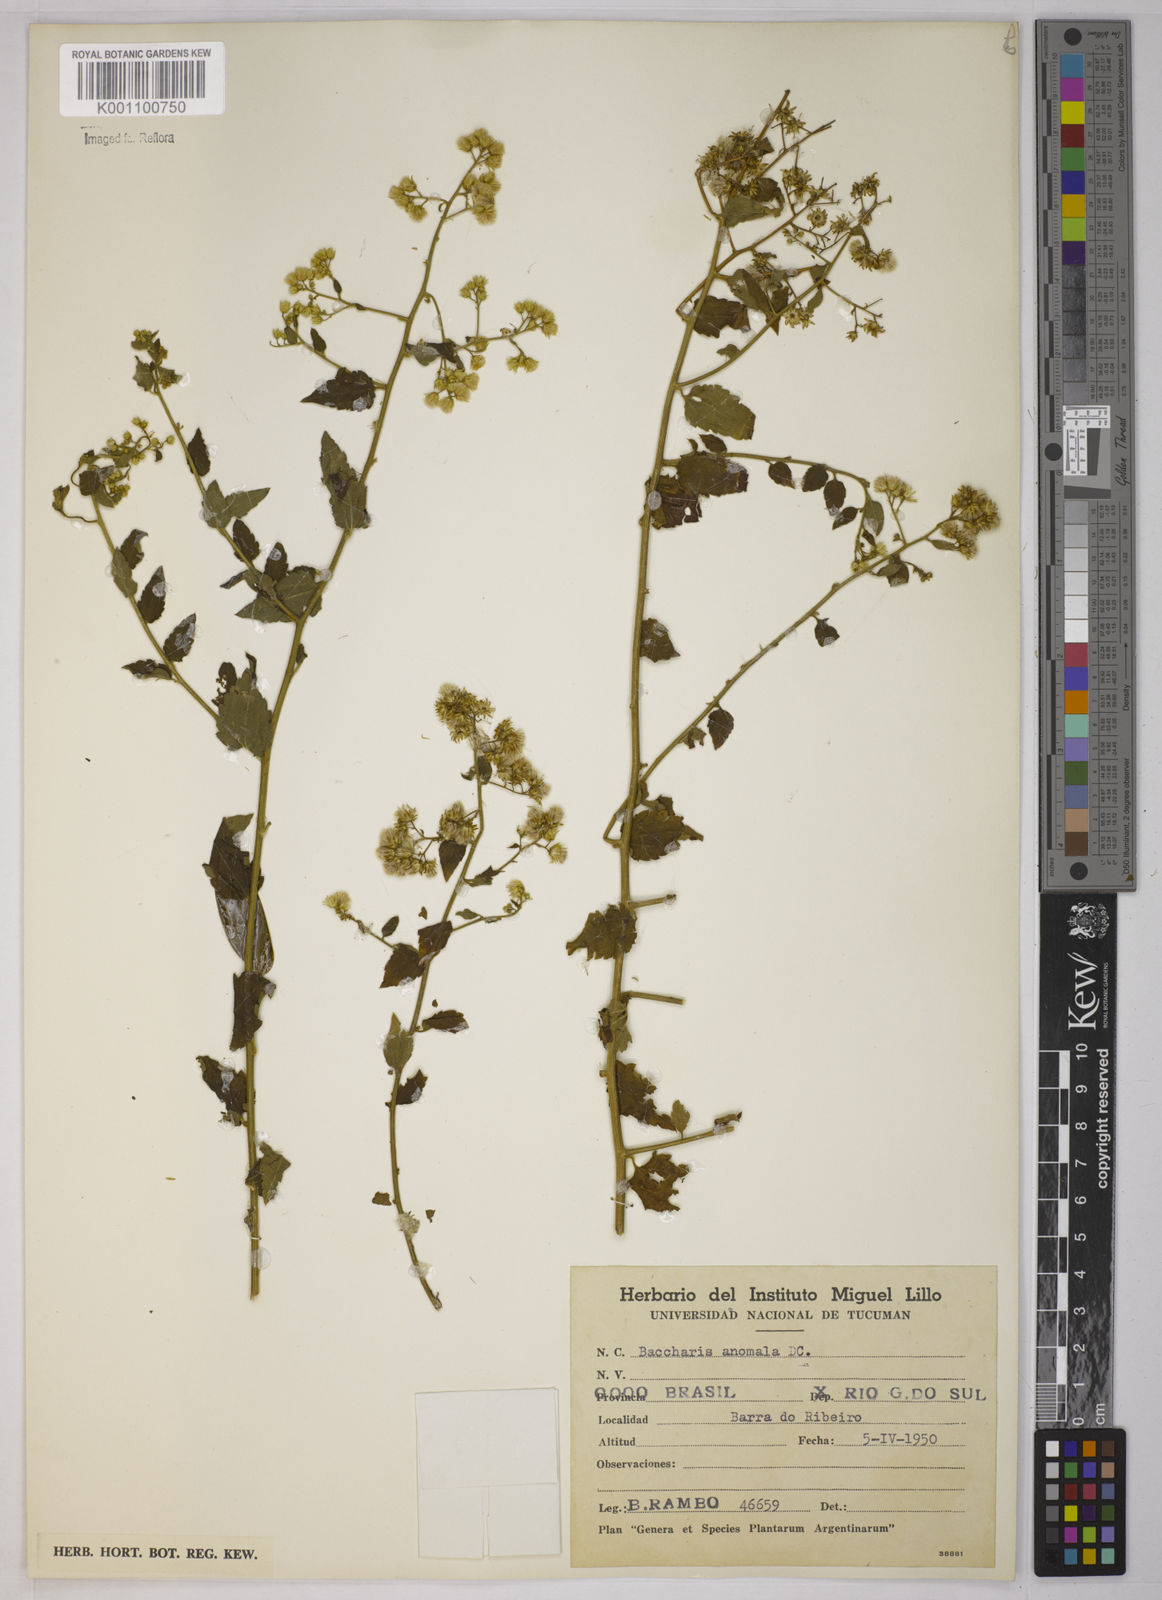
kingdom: Plantae
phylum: Tracheophyta
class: Magnoliopsida
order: Asterales
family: Asteraceae
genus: Baccharis
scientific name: Baccharis anomala
